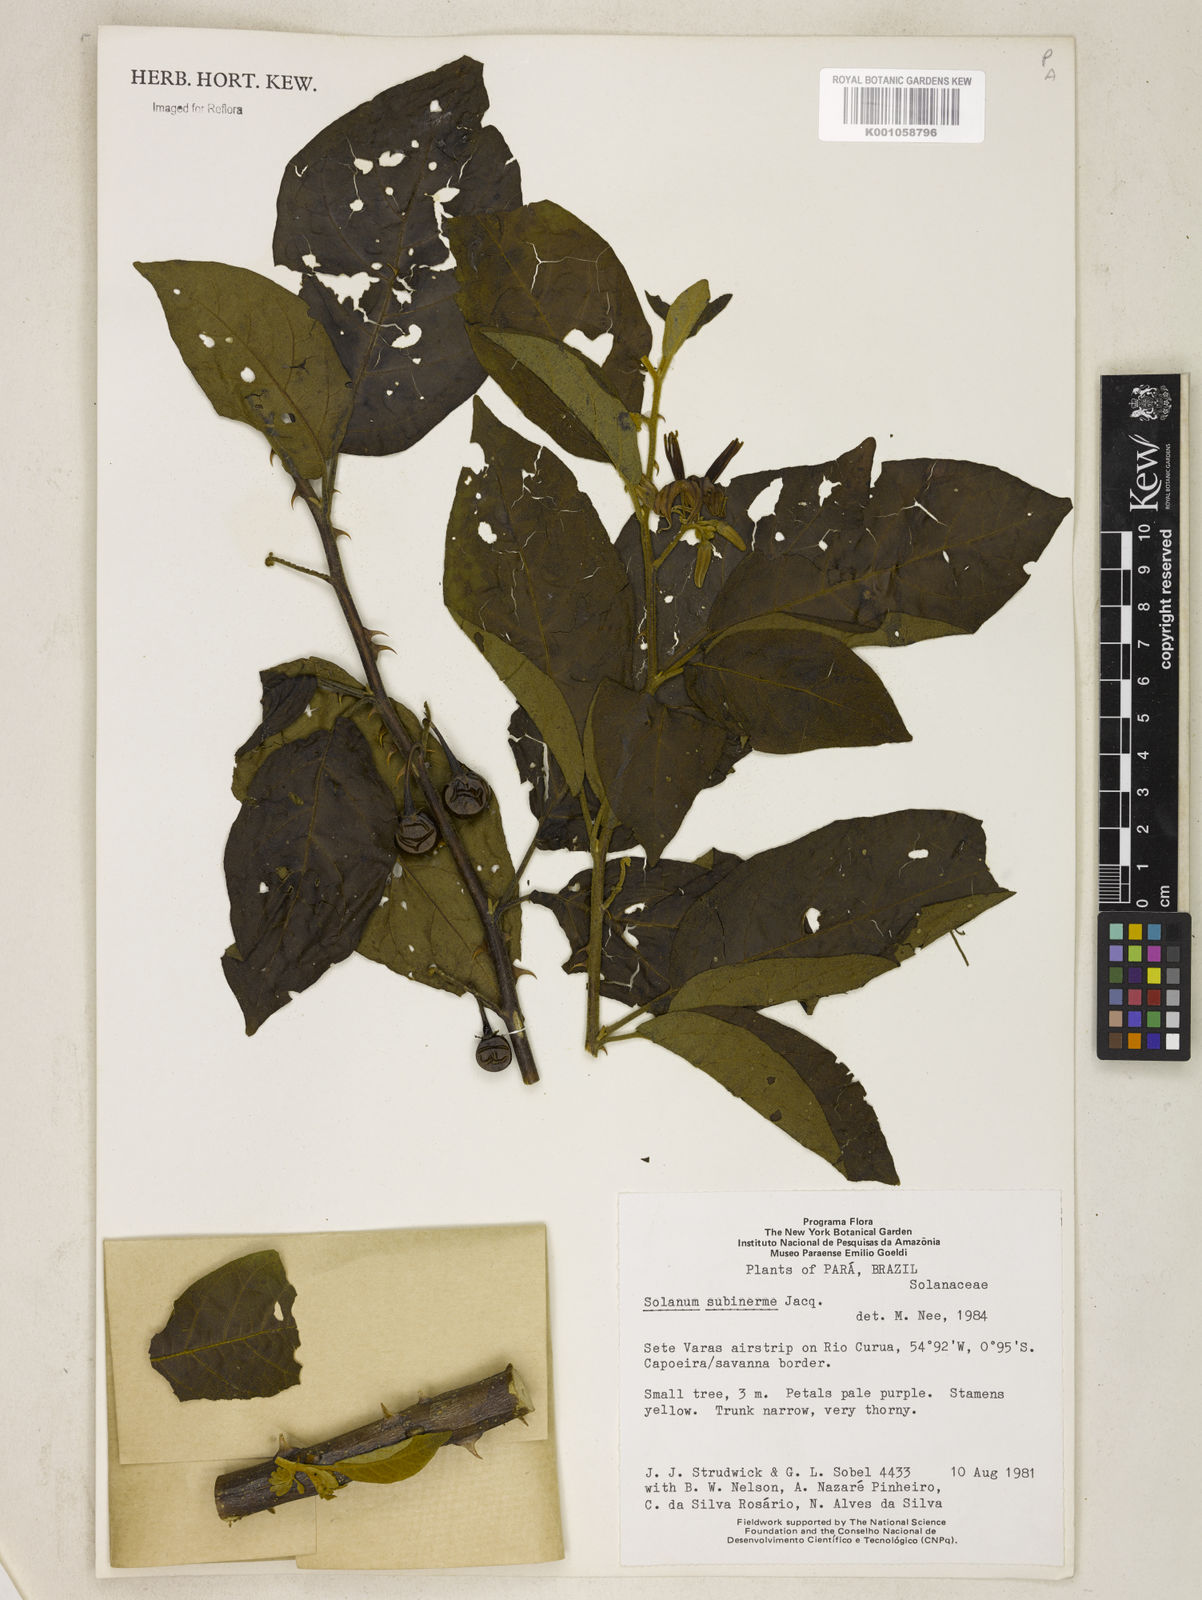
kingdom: Plantae
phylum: Tracheophyta
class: Magnoliopsida
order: Solanales
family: Solanaceae
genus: Solanum
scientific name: Solanum subinerme
